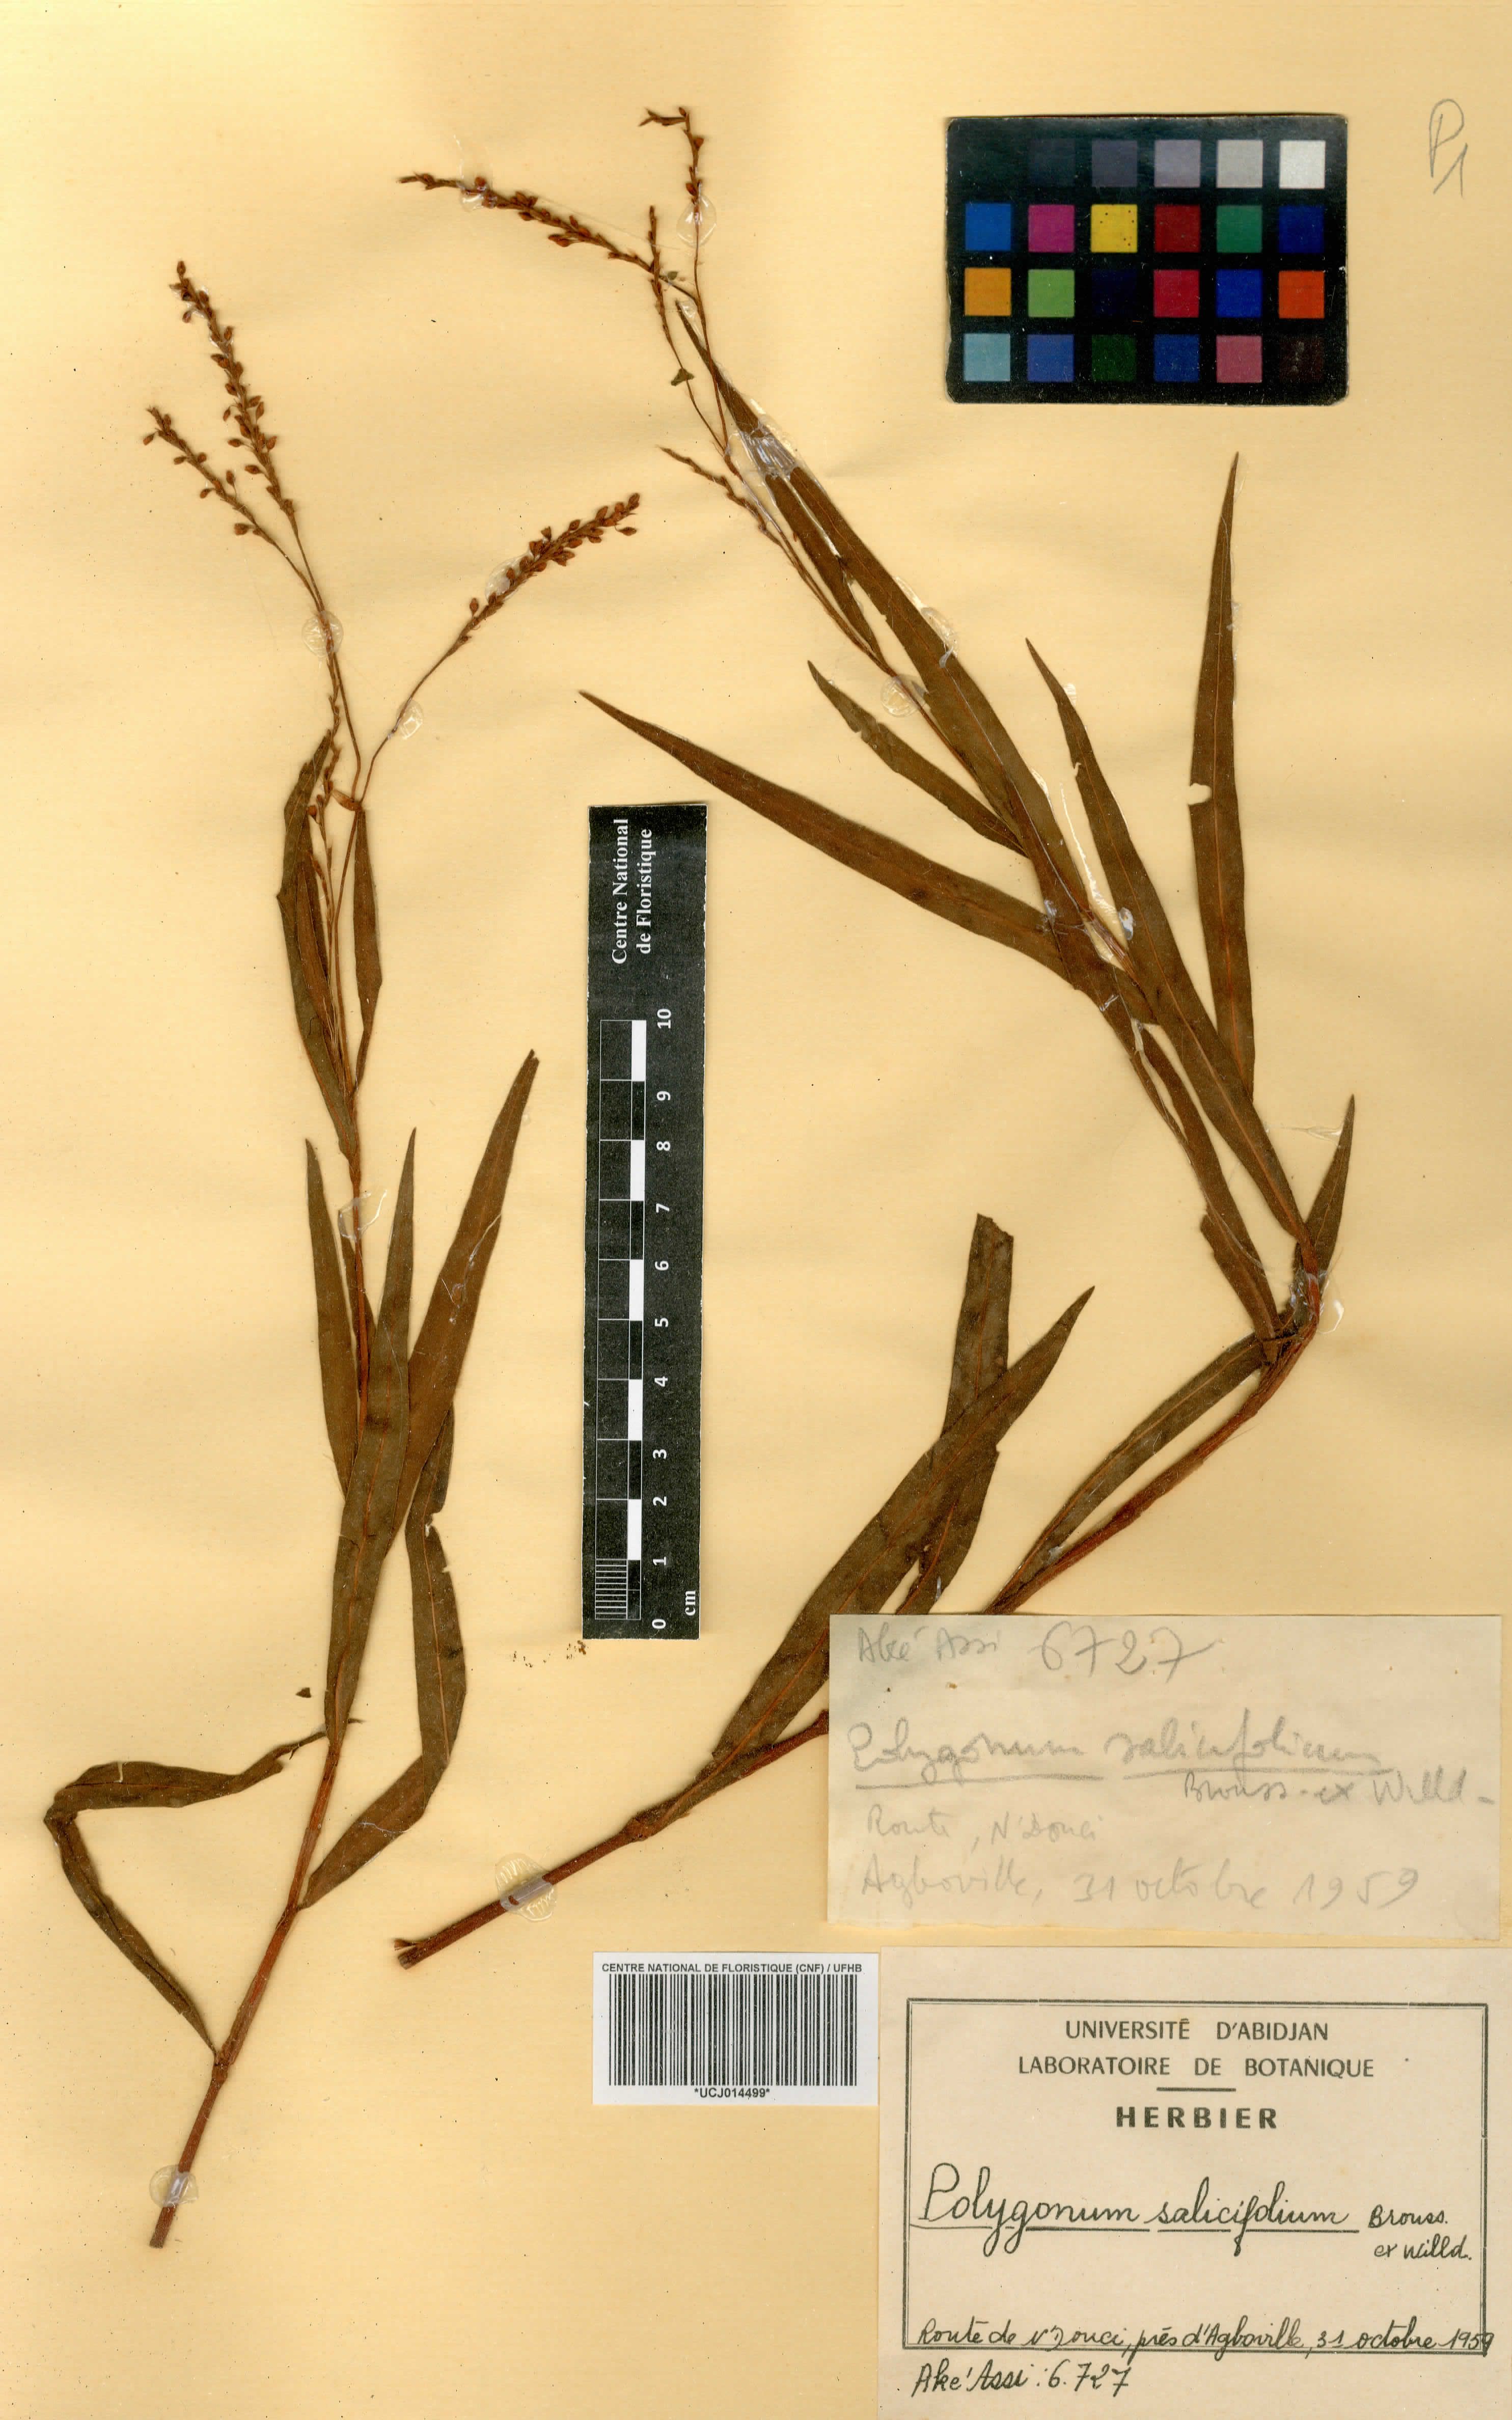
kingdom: Plantae
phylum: Tracheophyta
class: Magnoliopsida
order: Caryophyllales
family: Polygonaceae
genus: Persicaria
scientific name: Persicaria salicifolia
